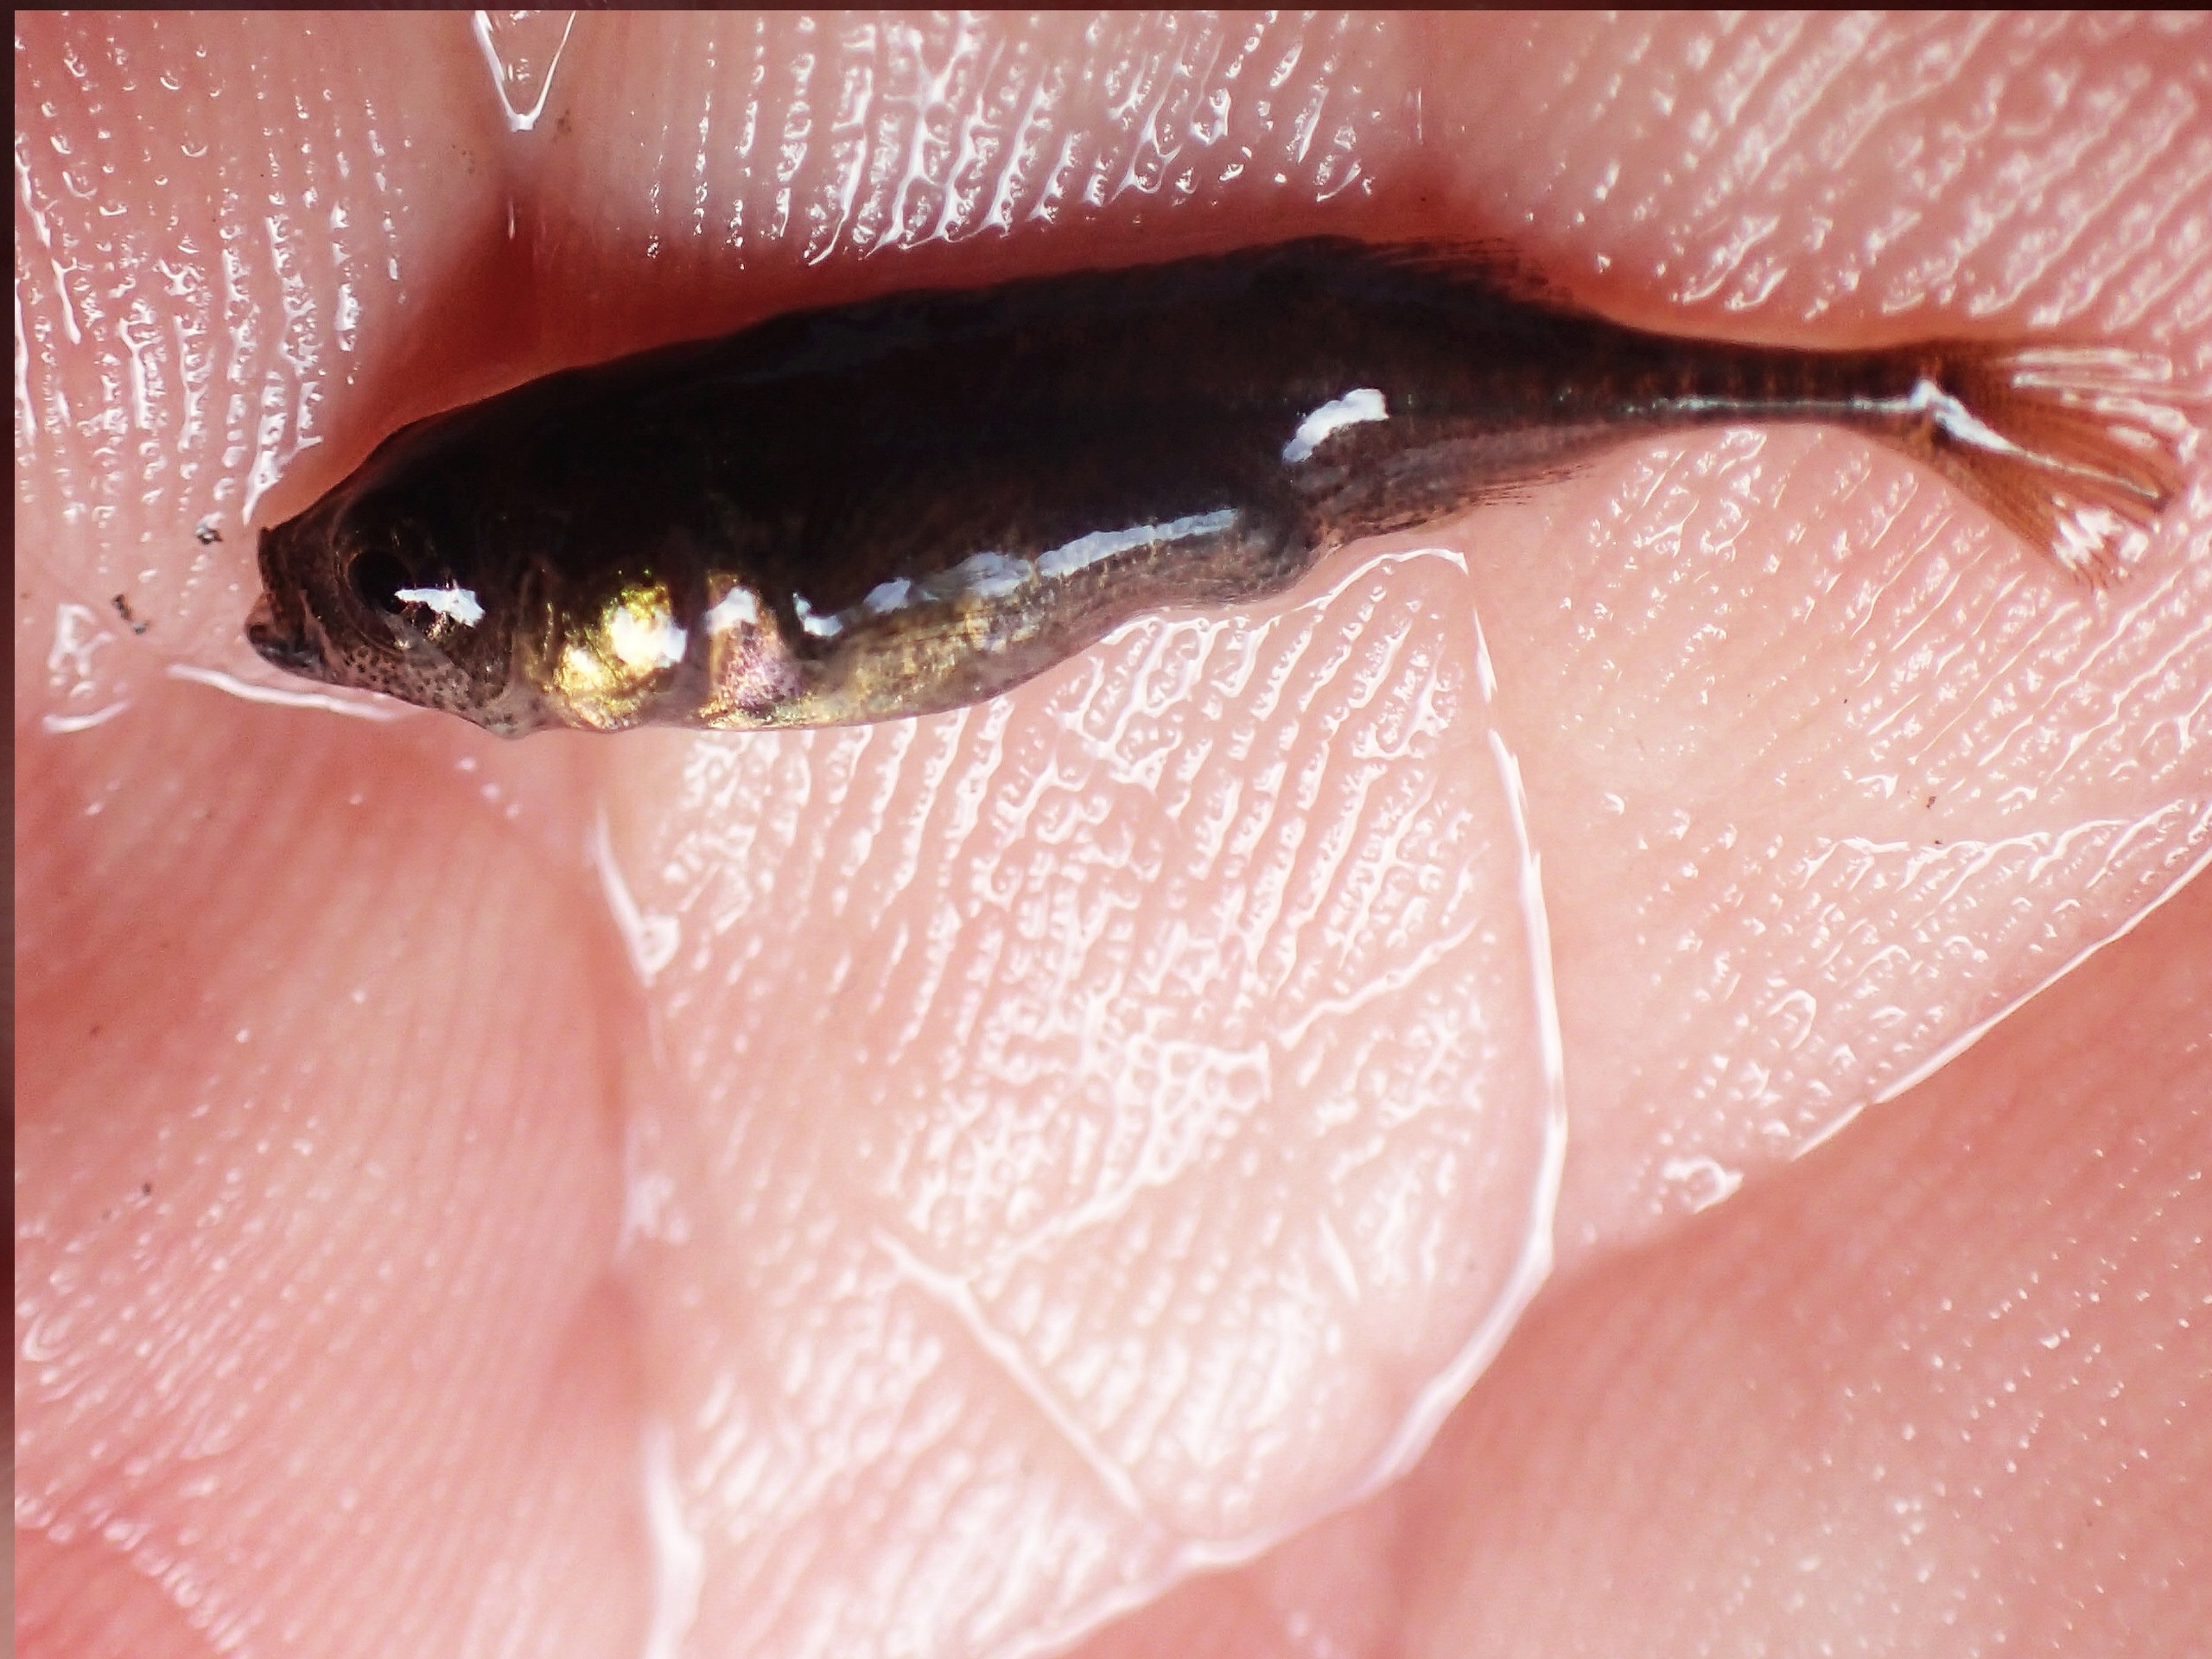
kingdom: Animalia
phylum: Chordata
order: Gasterosteiformes
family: Gasterosteidae
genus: Pungitius
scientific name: Pungitius pungitius
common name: Nipigget hundestejle
